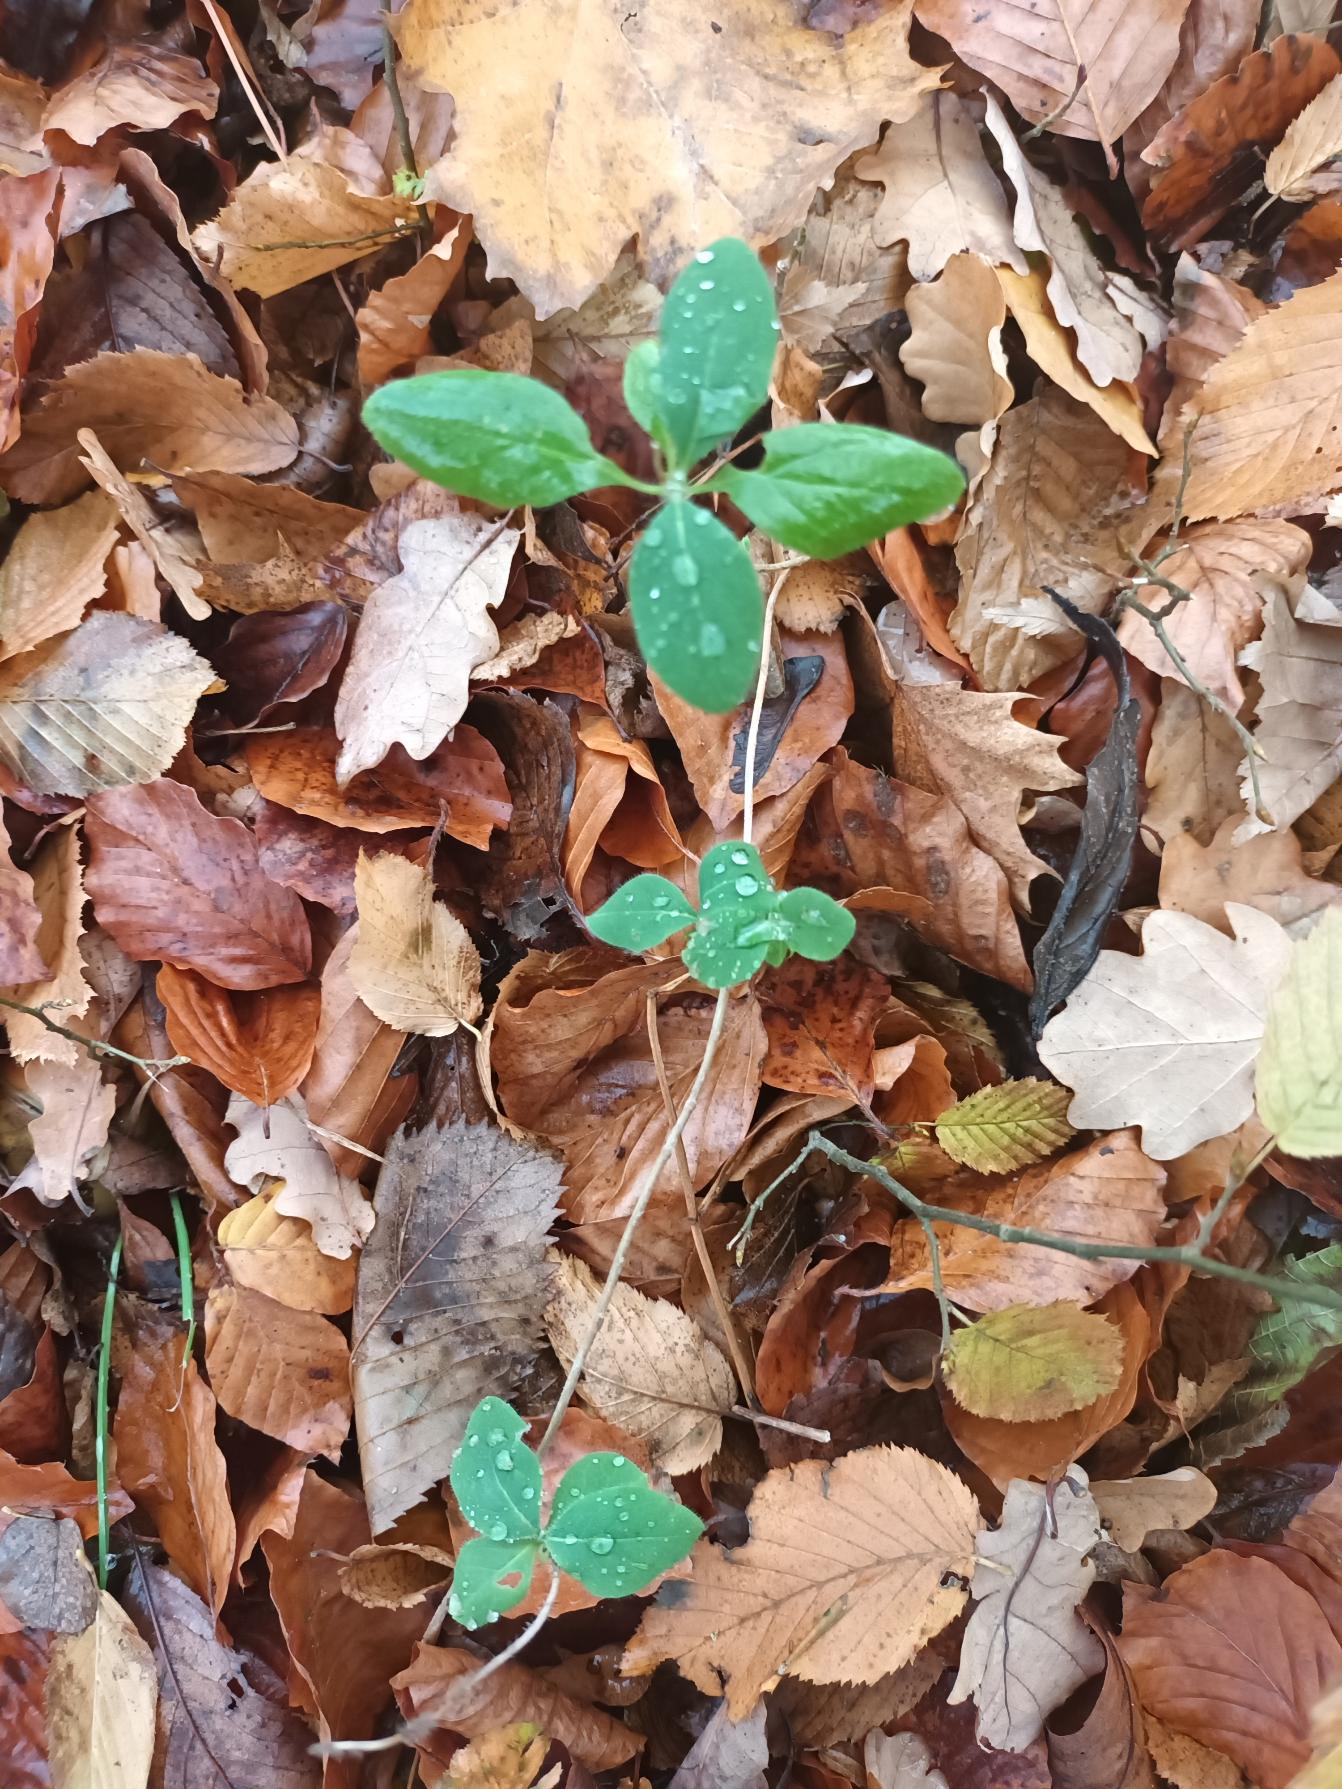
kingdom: Plantae
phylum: Tracheophyta
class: Magnoliopsida
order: Dipsacales
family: Caprifoliaceae
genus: Lonicera
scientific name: Lonicera periclymenum
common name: Almindelig gedeblad
